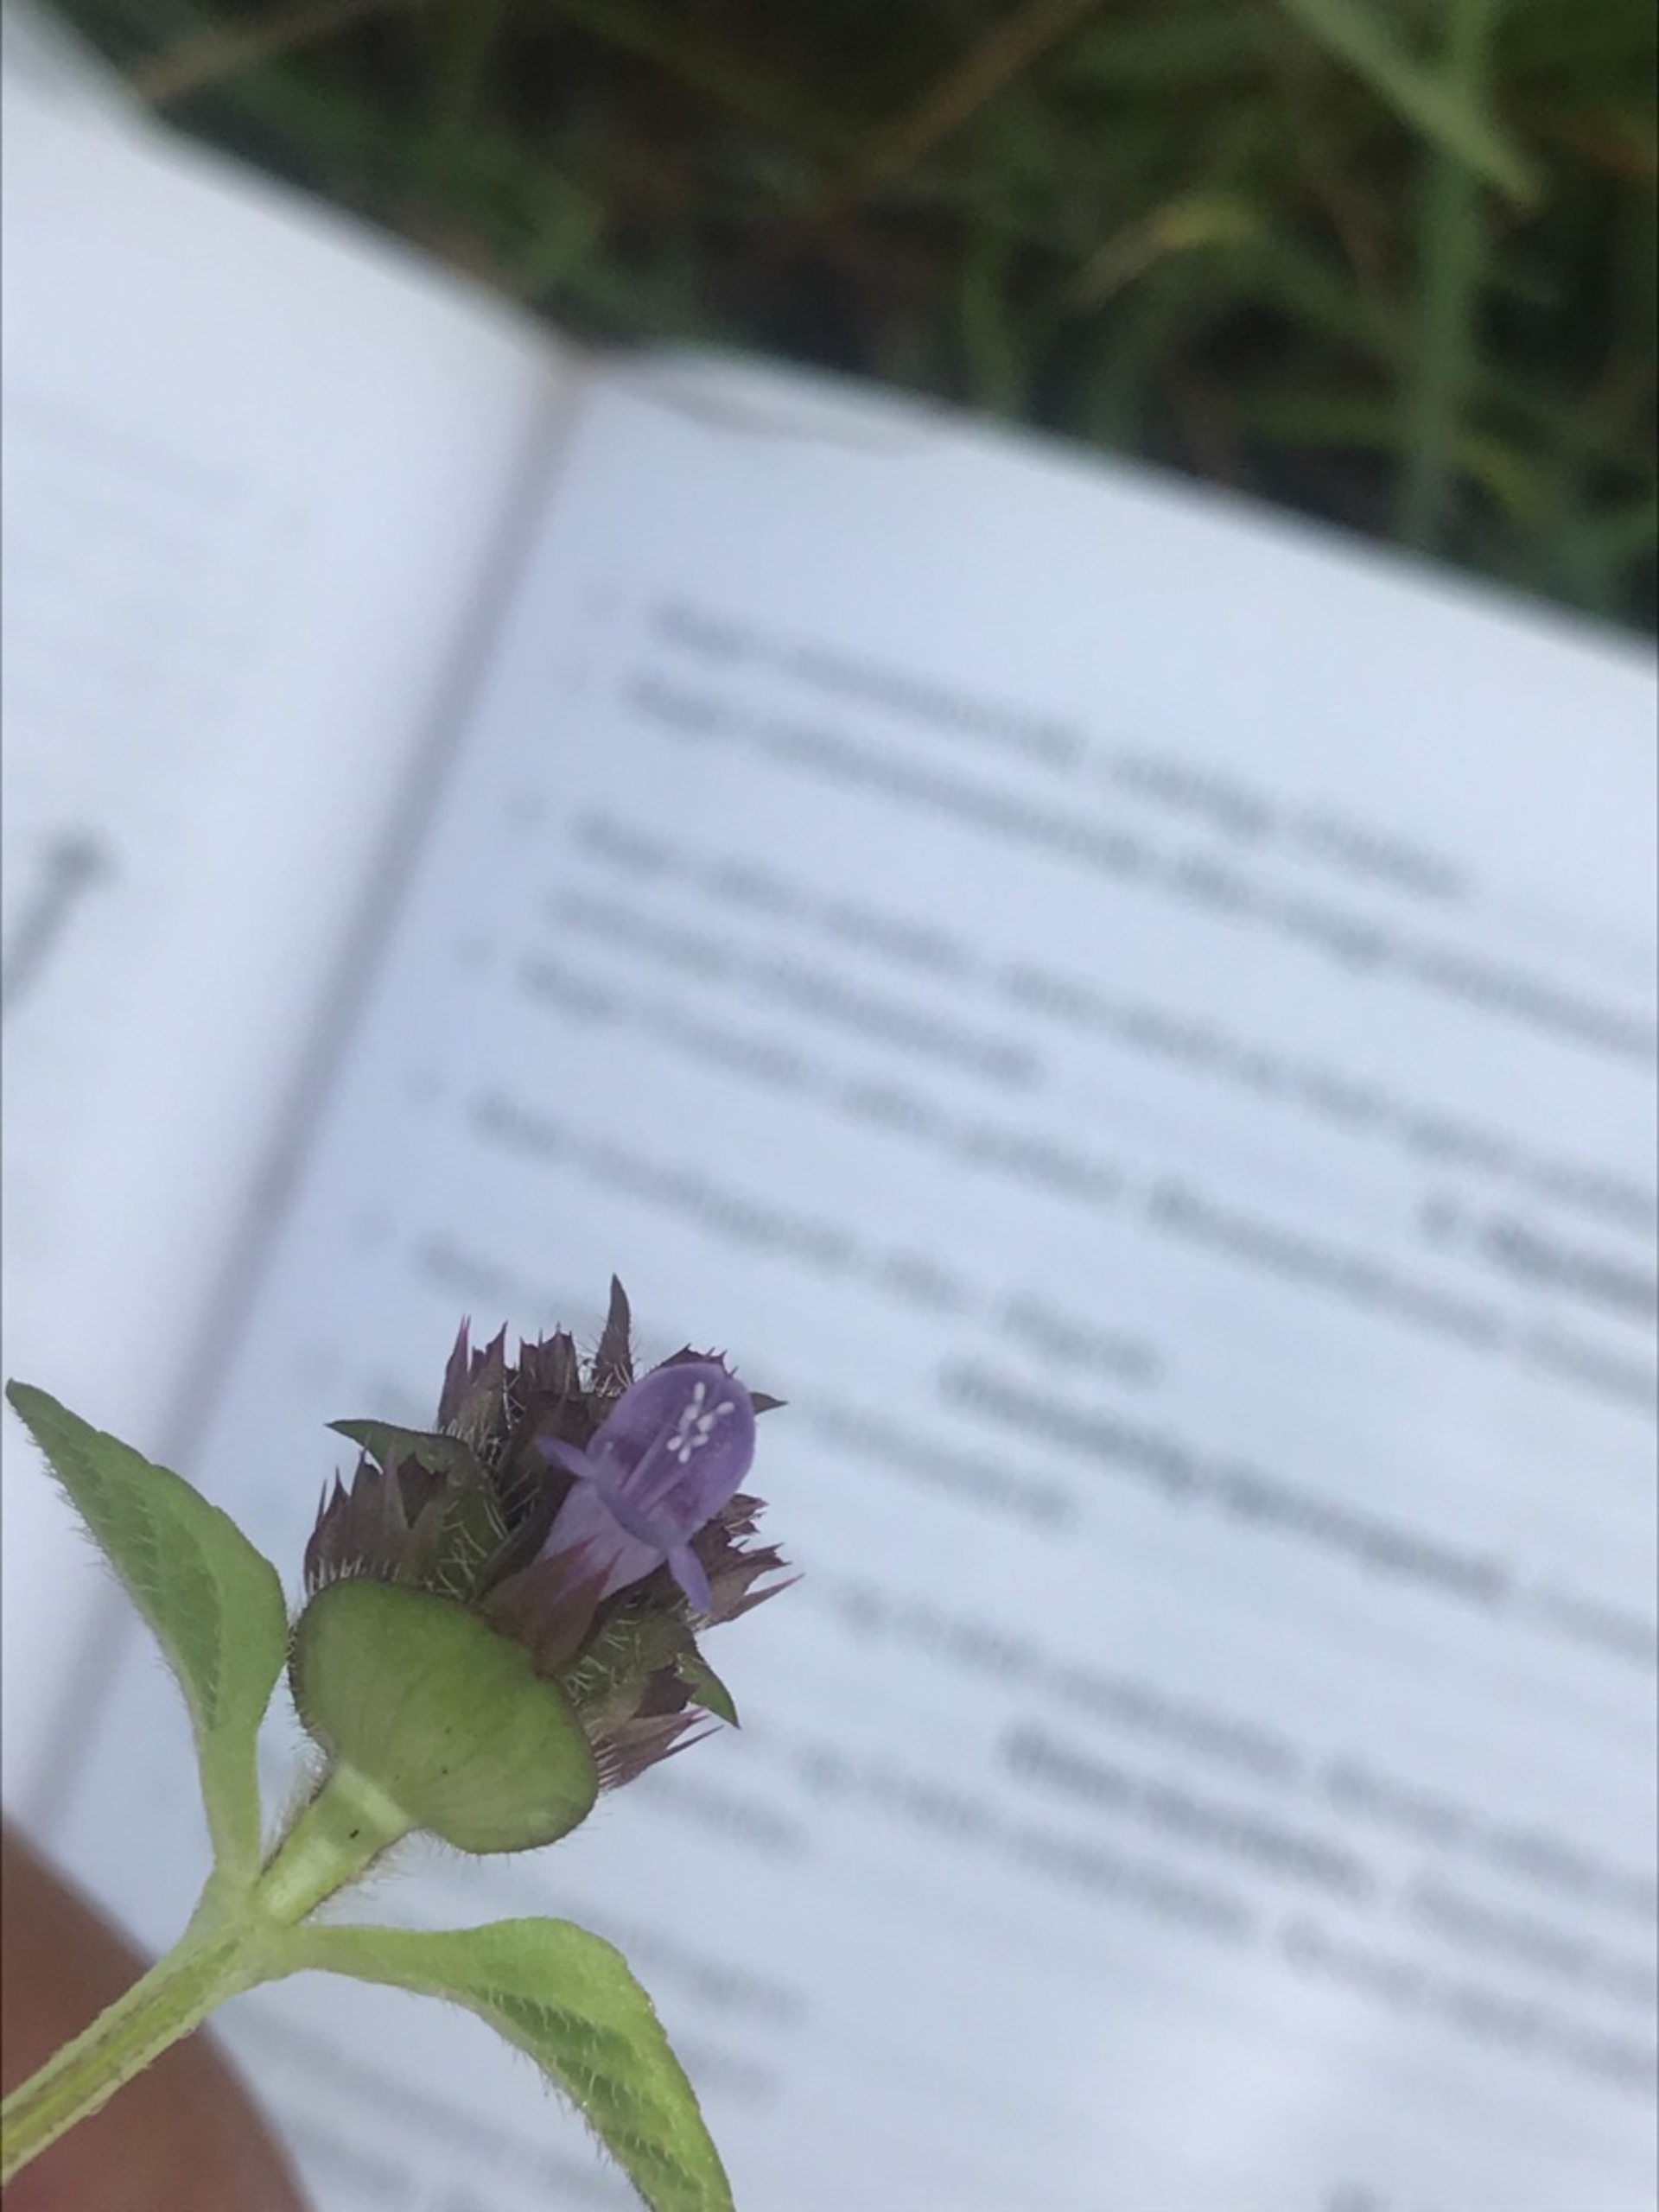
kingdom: Plantae
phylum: Tracheophyta
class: Magnoliopsida
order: Lamiales
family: Lamiaceae
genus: Prunella
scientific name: Prunella vulgaris
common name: Almindelig brunelle
